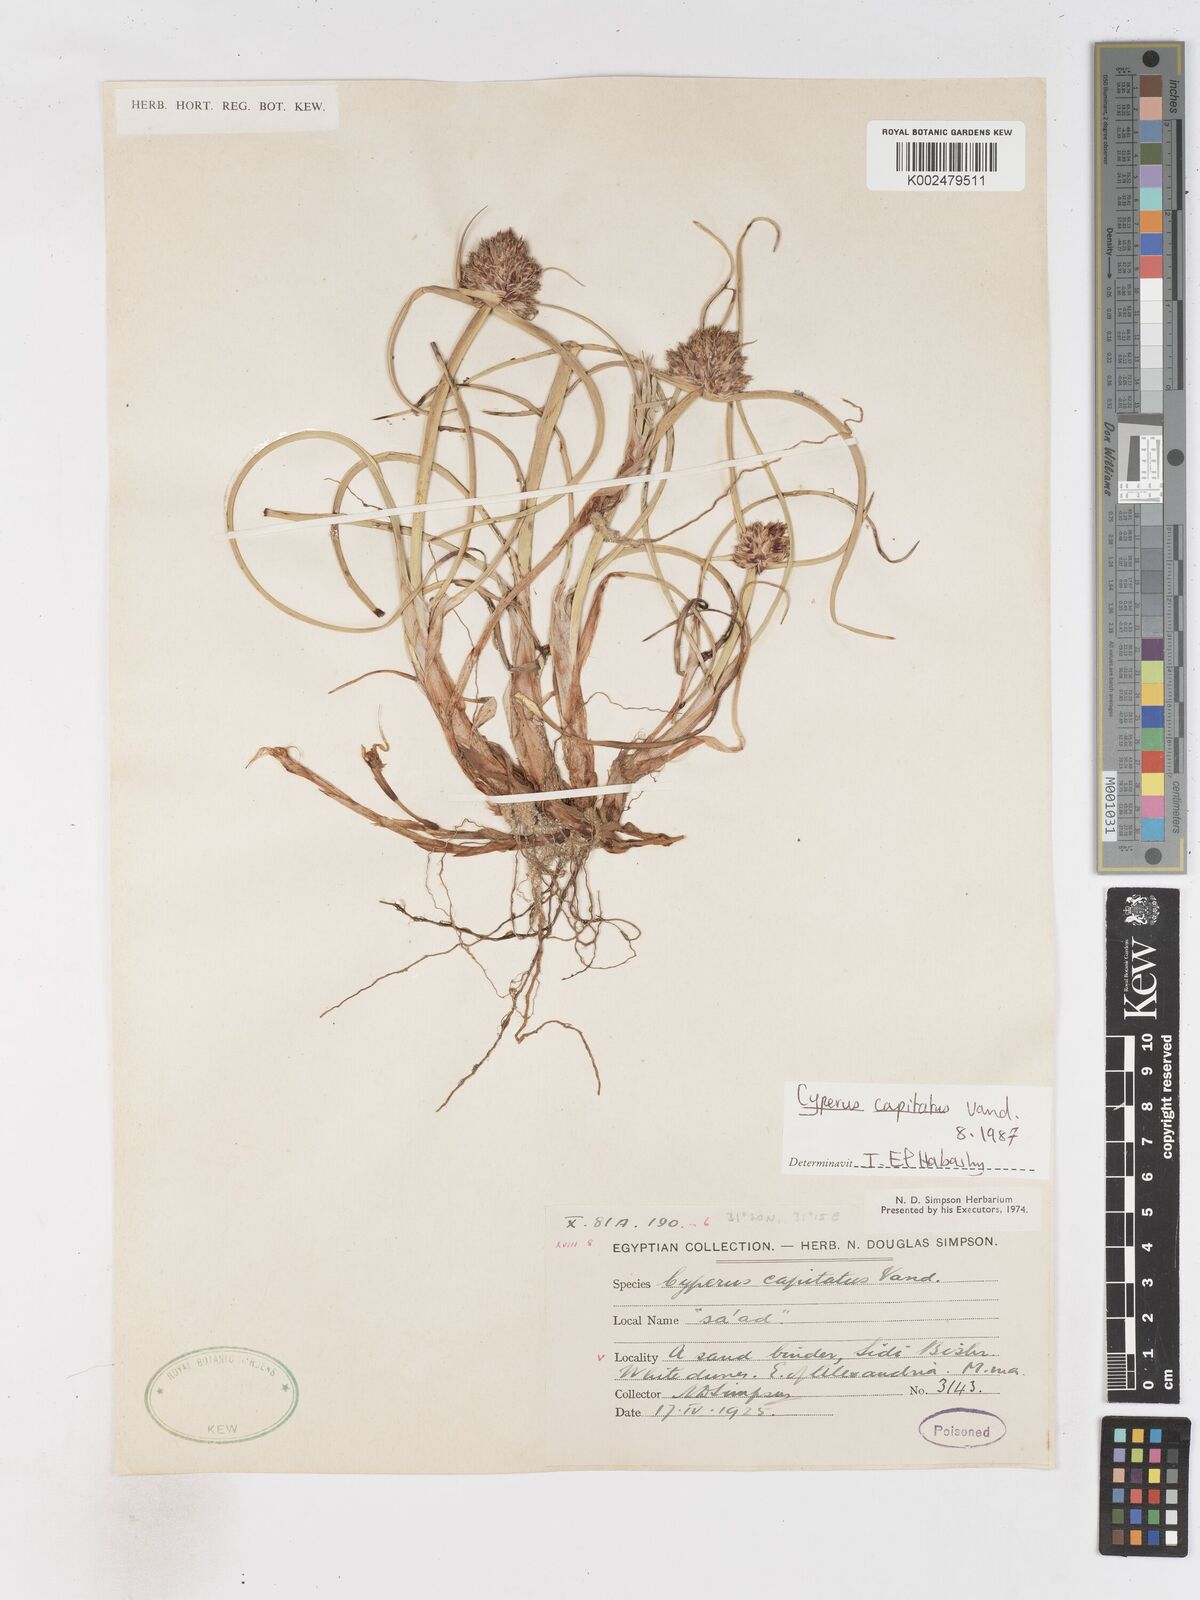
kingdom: Plantae
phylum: Tracheophyta
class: Liliopsida
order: Poales
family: Cyperaceae
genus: Cyperus
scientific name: Cyperus capitatus
